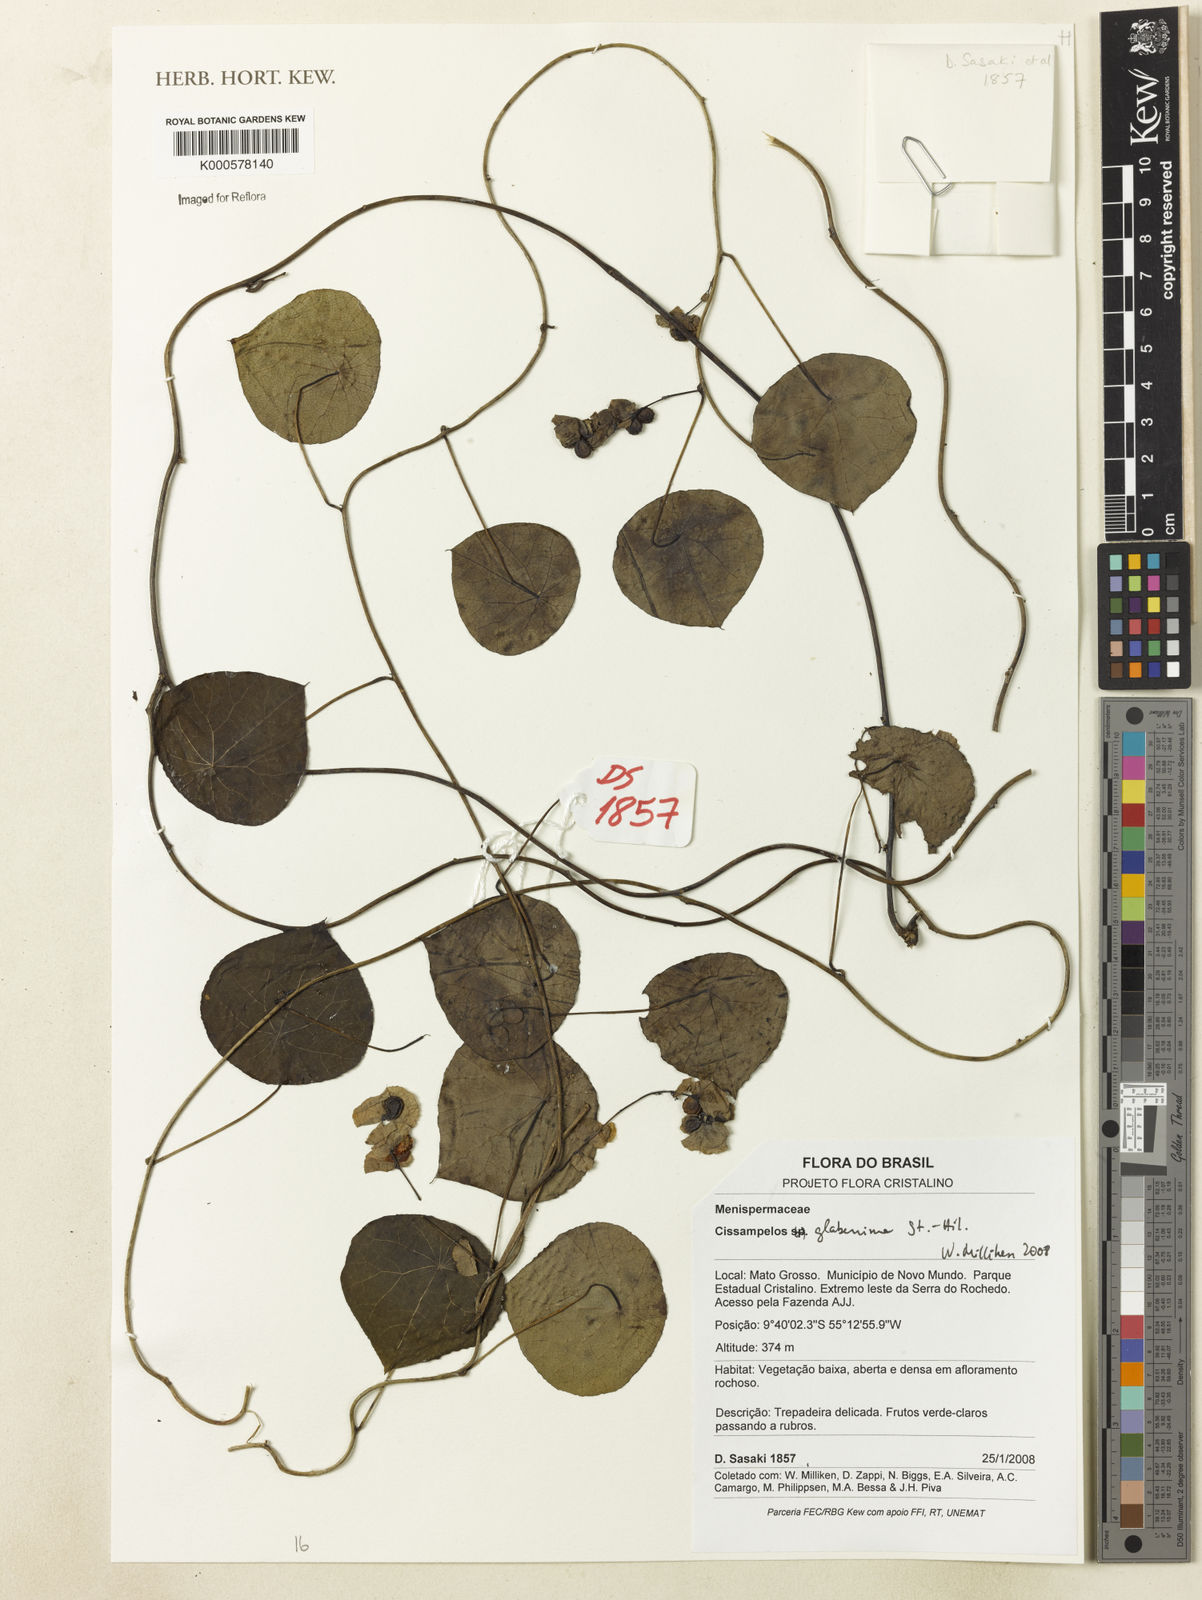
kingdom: Plantae
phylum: Tracheophyta
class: Magnoliopsida
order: Ranunculales
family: Menispermaceae
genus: Cissampelos
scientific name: Cissampelos glaberrima
